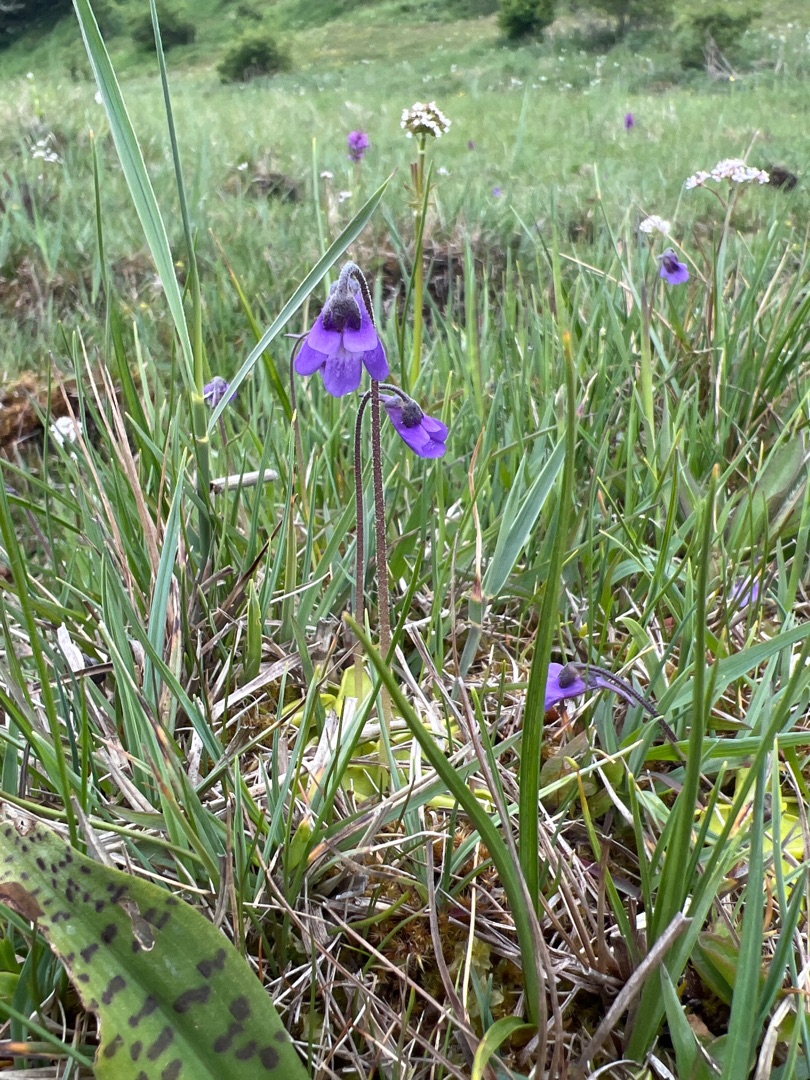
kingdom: Plantae
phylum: Tracheophyta
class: Magnoliopsida
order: Lamiales
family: Lentibulariaceae
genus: Pinguicula
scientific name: Pinguicula vulgaris
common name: Vibefedt
